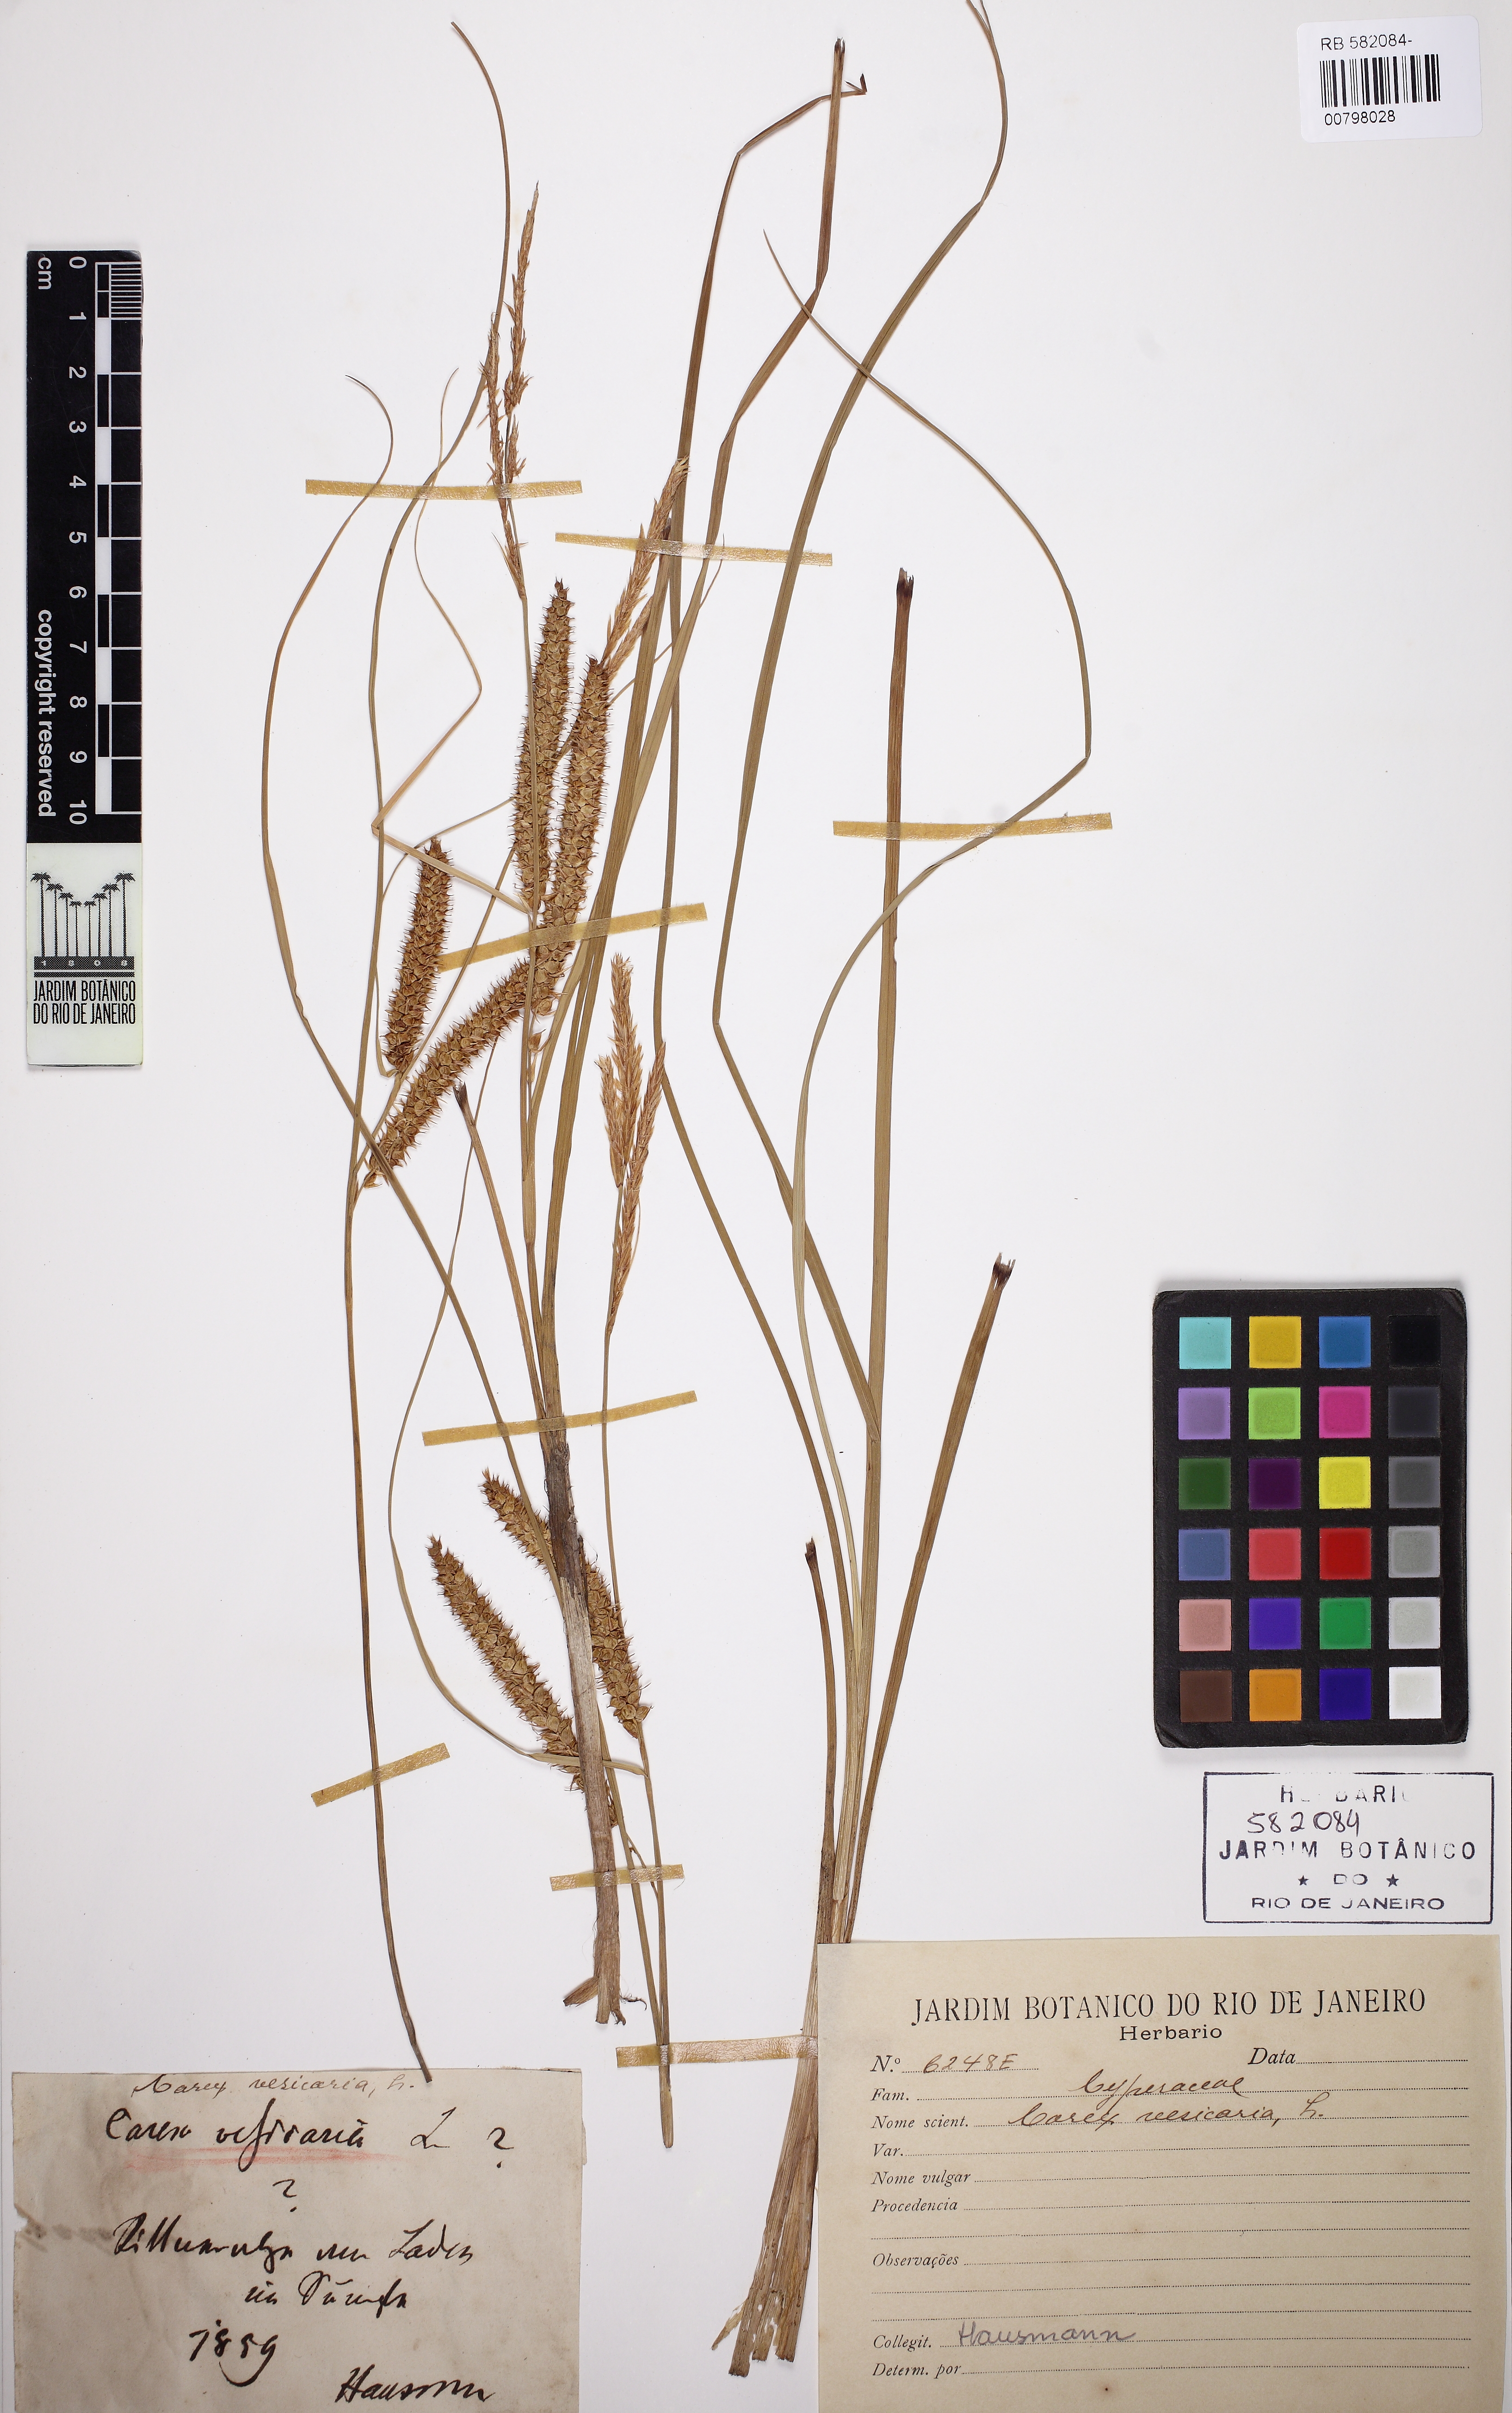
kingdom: Plantae
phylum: Tracheophyta
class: Liliopsida
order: Poales
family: Cyperaceae
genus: Carex
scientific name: Carex vesicaria
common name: Bladder-sedge
